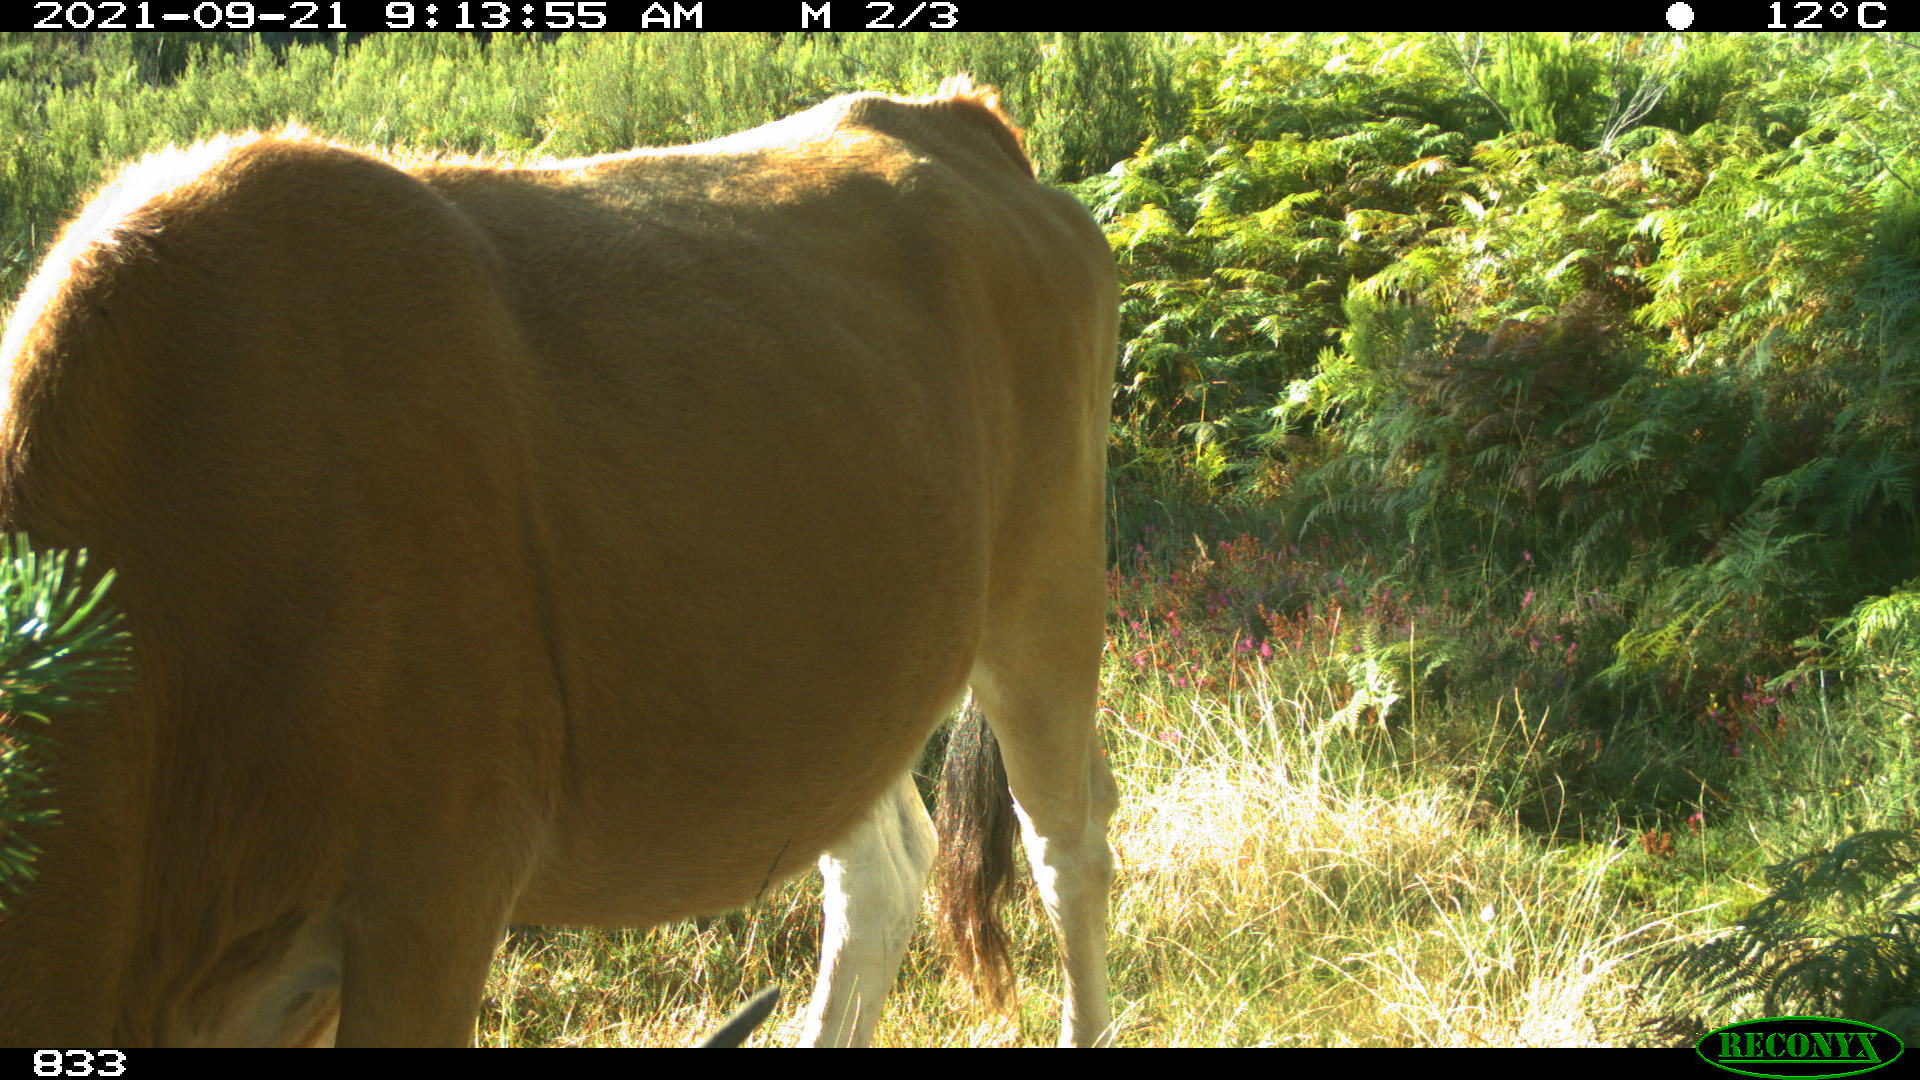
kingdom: Animalia
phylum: Chordata
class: Mammalia
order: Artiodactyla
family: Bovidae
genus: Bos
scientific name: Bos taurus
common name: Domesticated cattle
